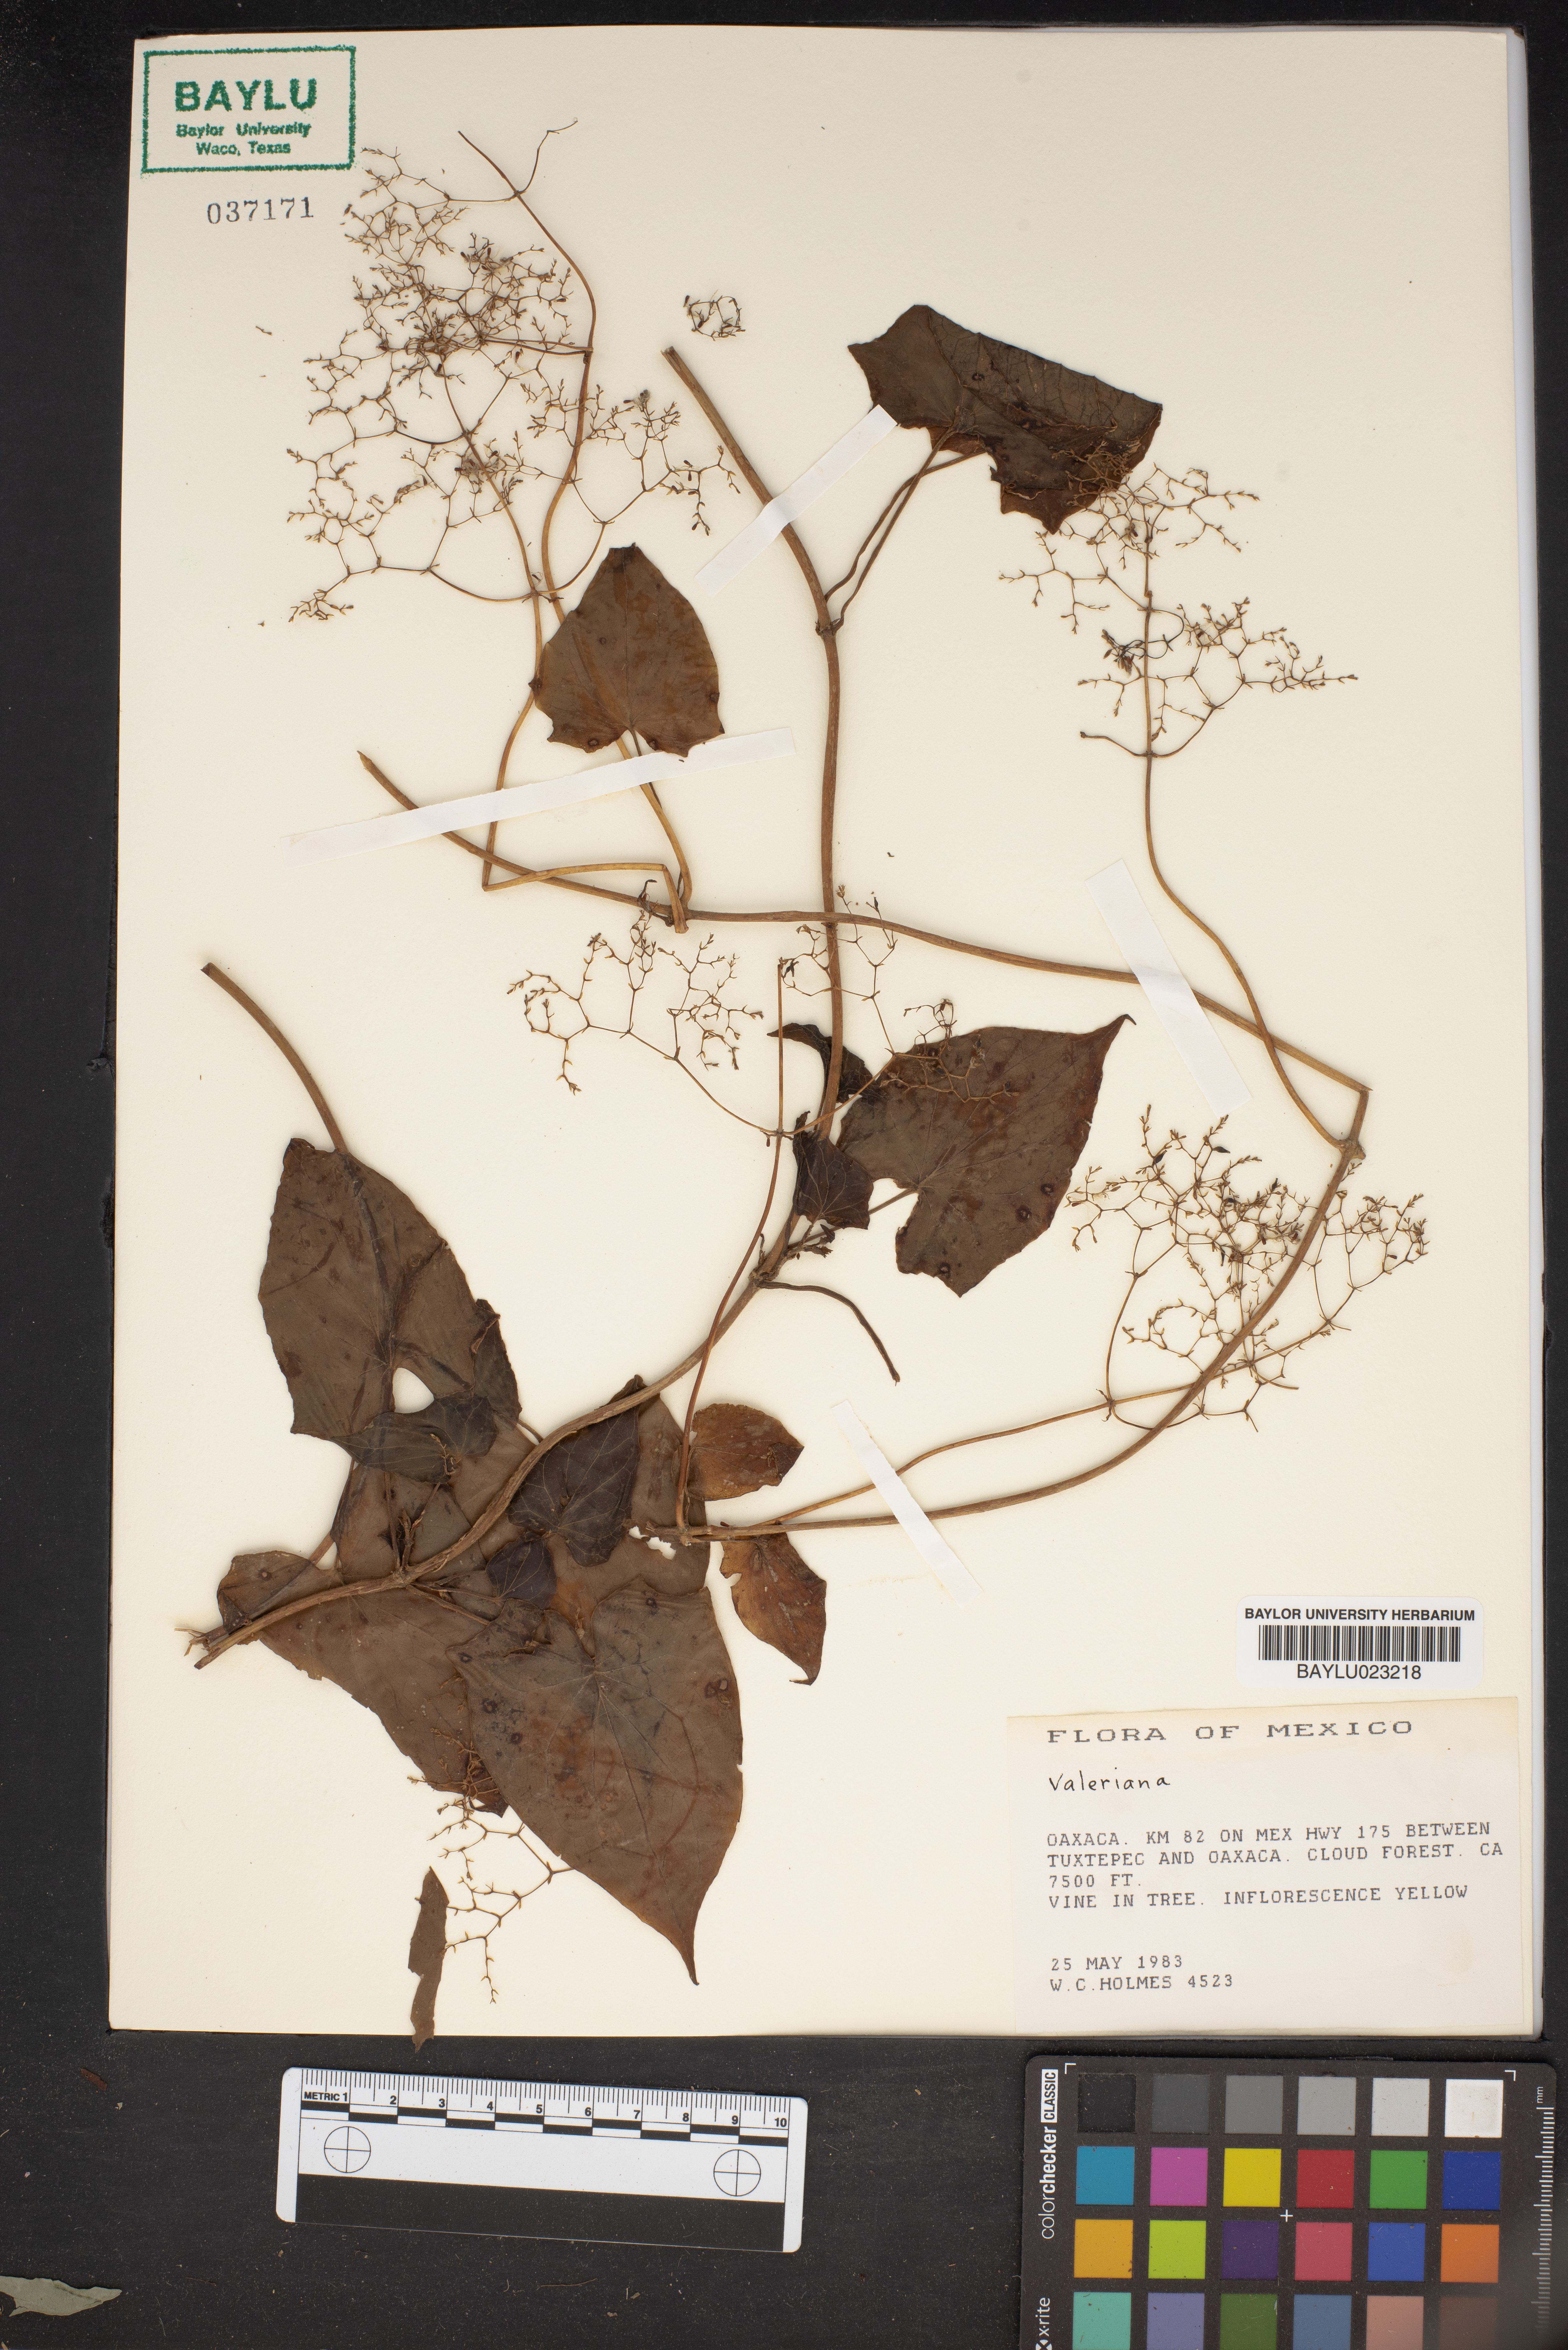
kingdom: Plantae
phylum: Tracheophyta
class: Magnoliopsida
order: Dipsacales
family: Caprifoliaceae
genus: Valeriana
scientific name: Valeriana
